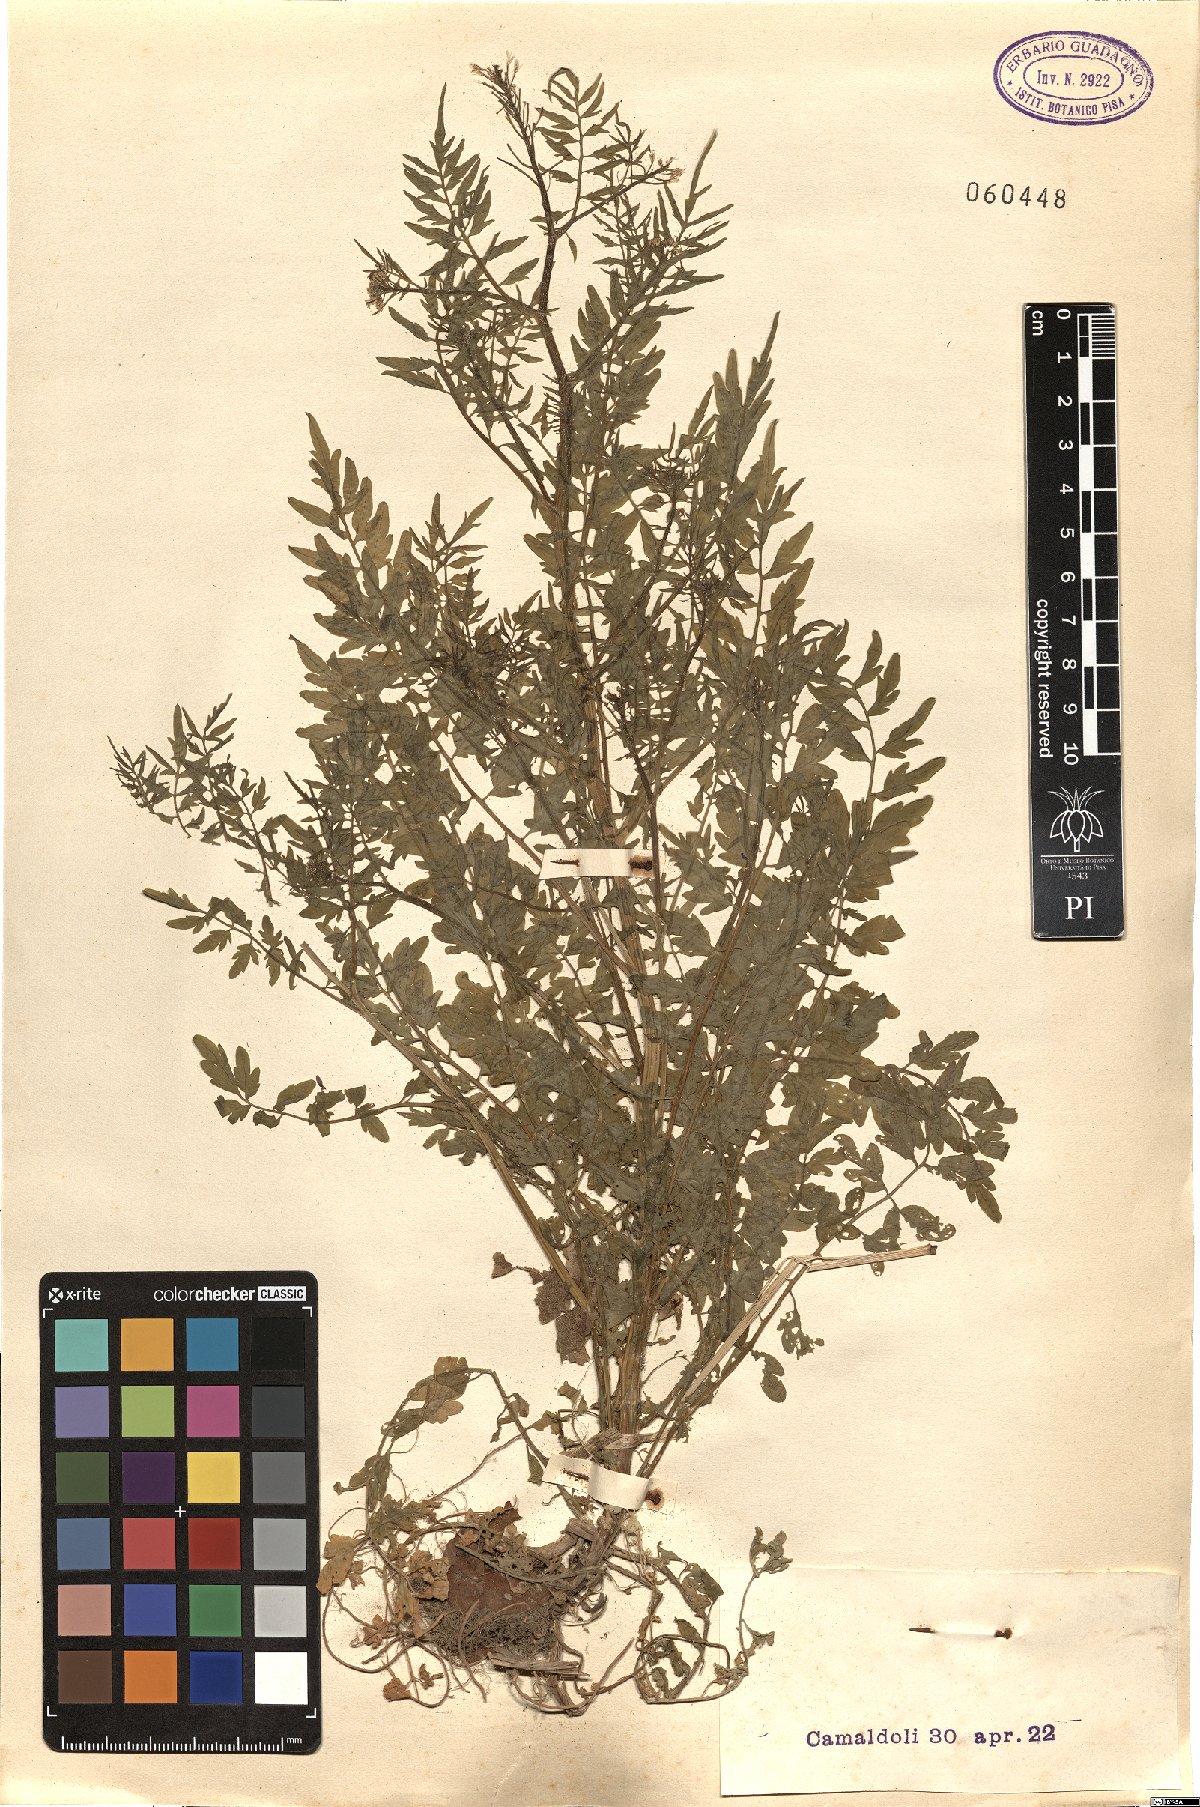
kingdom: Plantae
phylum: Tracheophyta
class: Magnoliopsida
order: Brassicales
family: Brassicaceae
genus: Cardamine
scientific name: Cardamine impatiens
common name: Narrow-leaved bitter-cress
